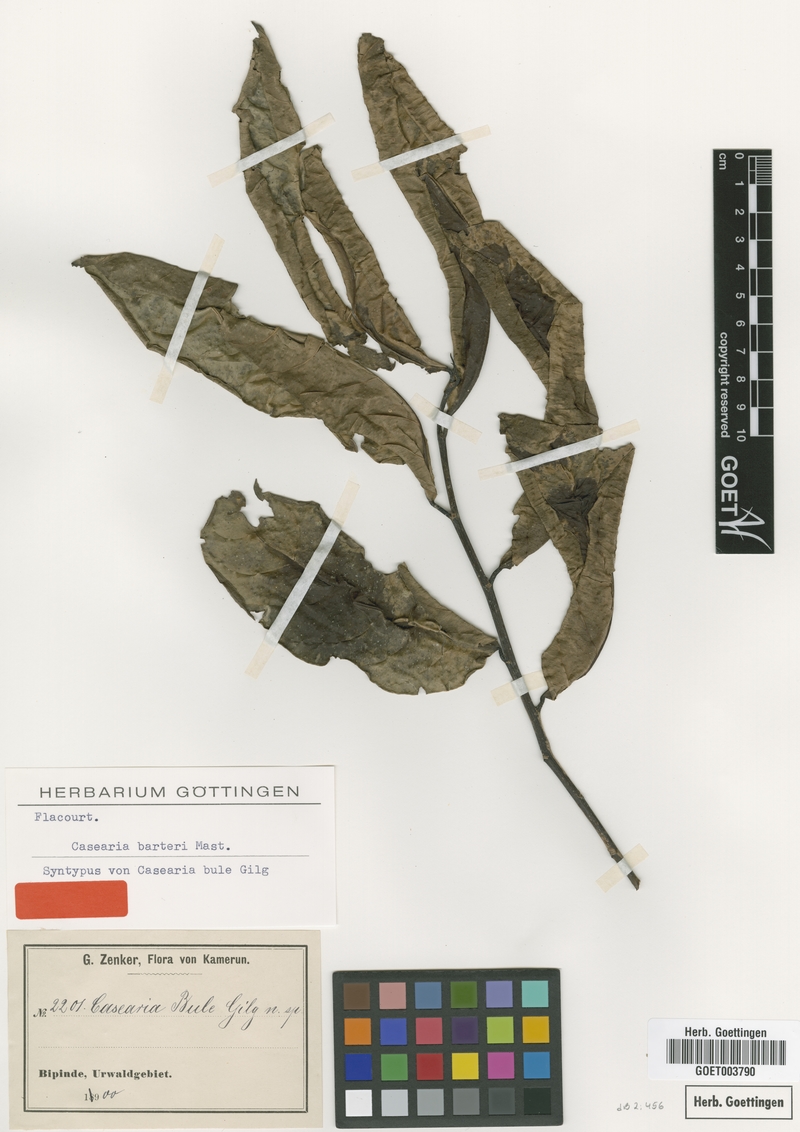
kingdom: Plantae
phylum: Tracheophyta
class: Magnoliopsida
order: Malpighiales
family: Salicaceae
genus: Casearia
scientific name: Casearia barteri
